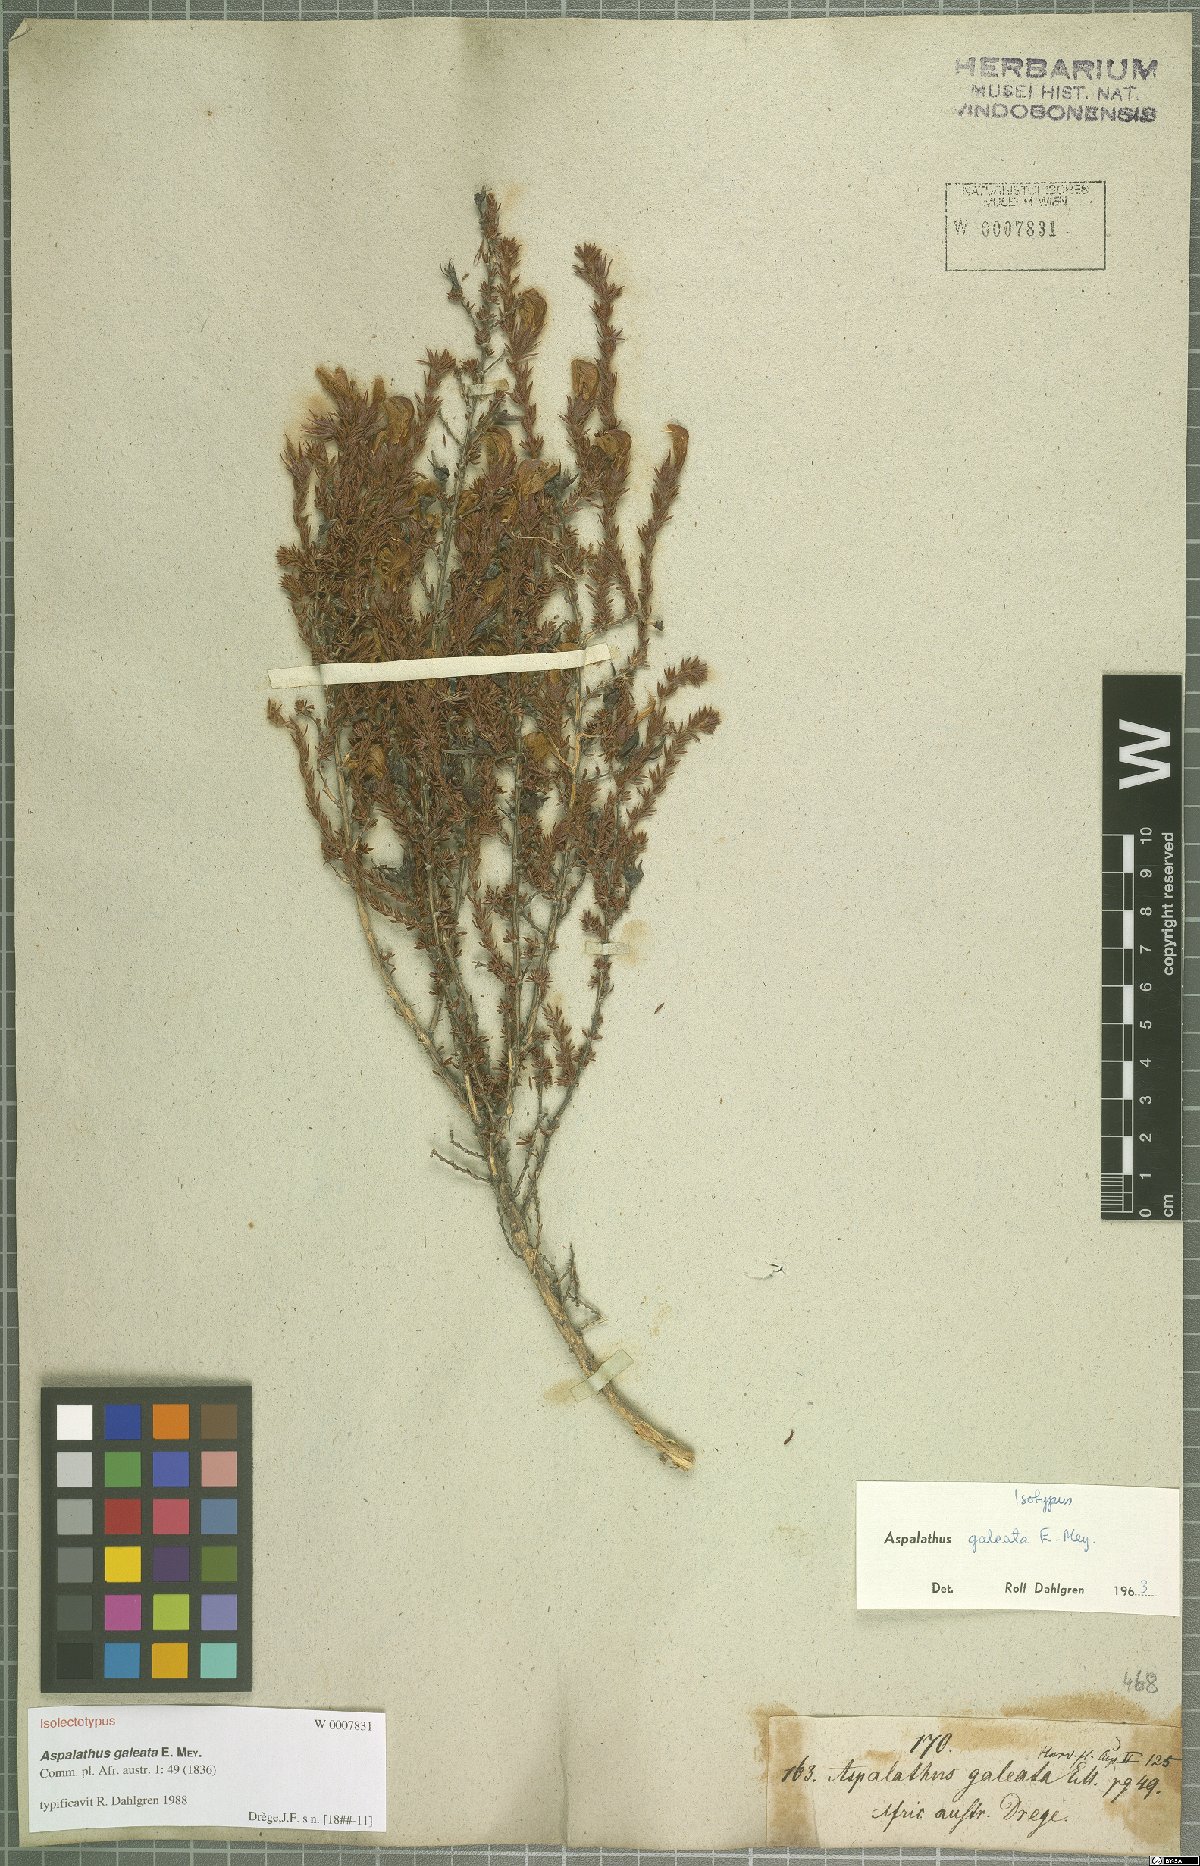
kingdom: Plantae
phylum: Tracheophyta
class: Magnoliopsida
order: Fabales
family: Fabaceae
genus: Aspalathus
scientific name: Aspalathus galeata
